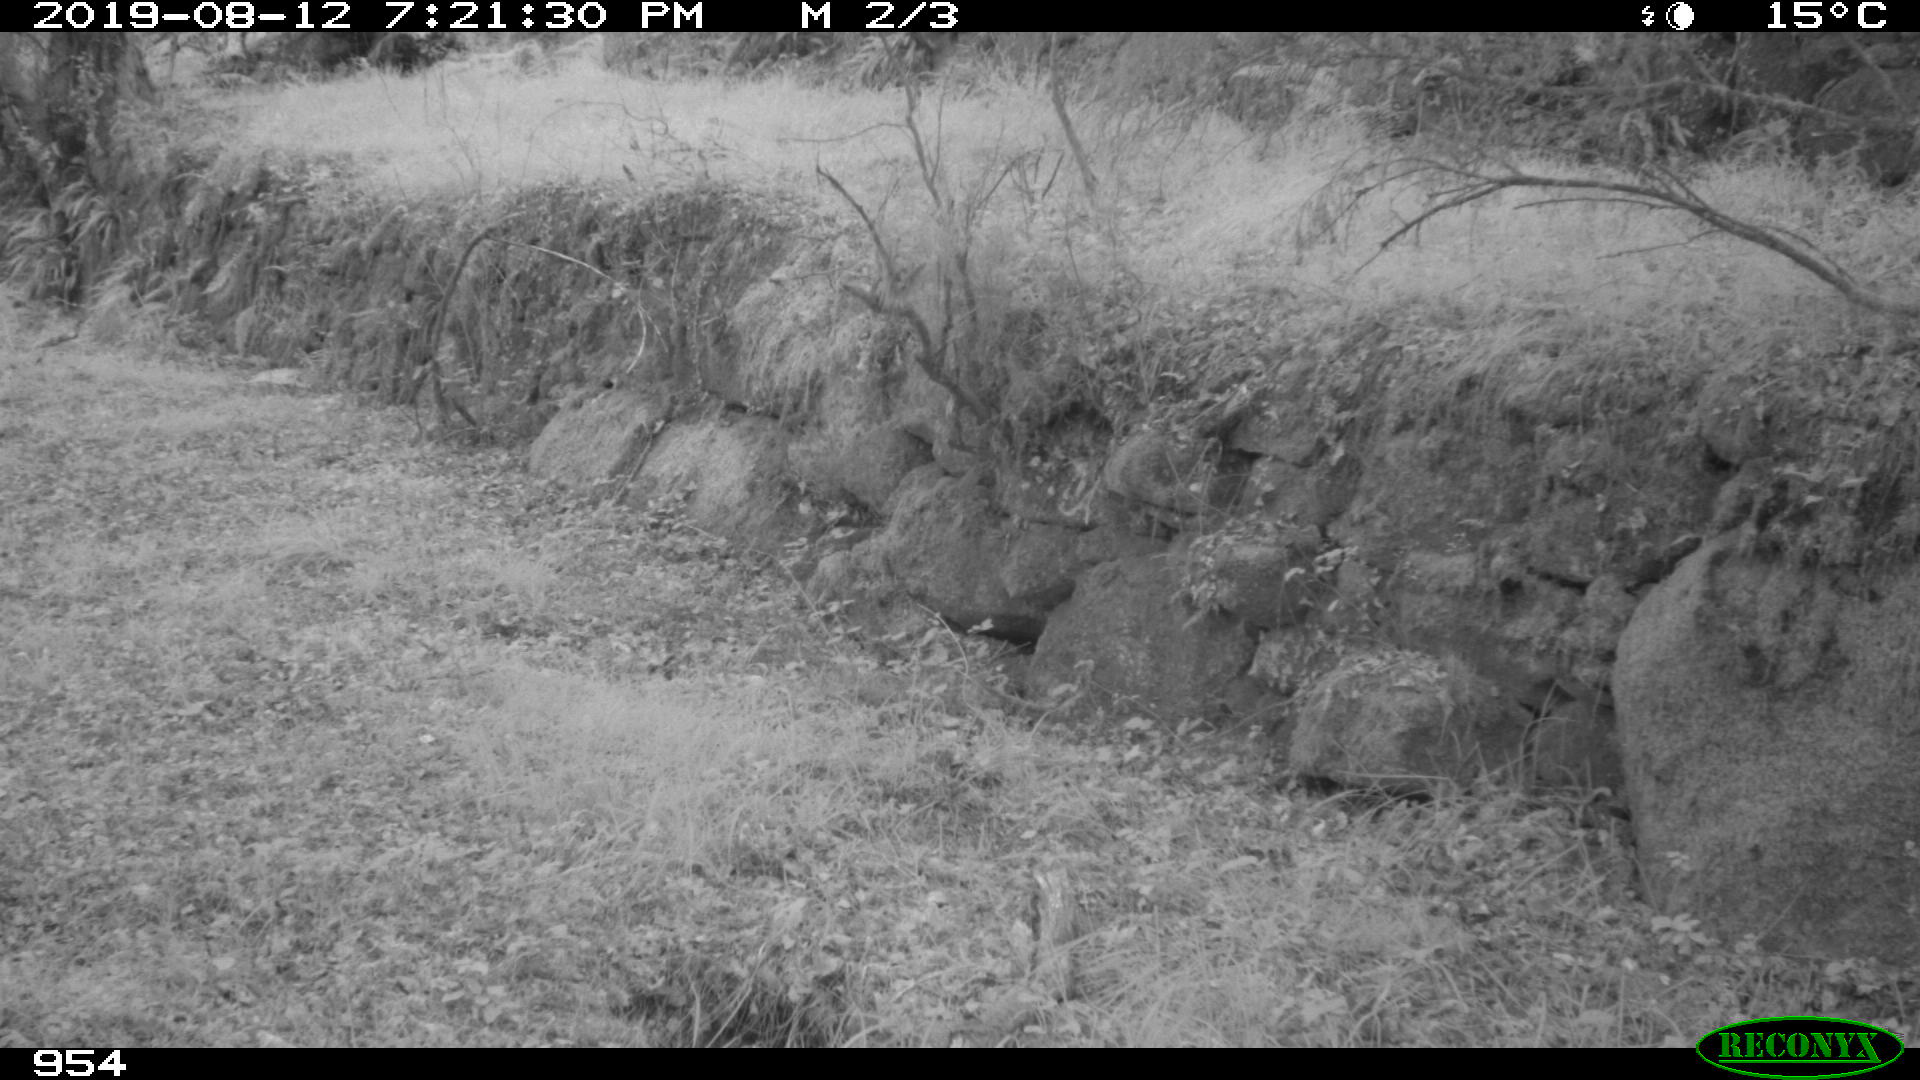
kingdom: Animalia
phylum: Chordata
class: Mammalia
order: Artiodactyla
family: Cervidae
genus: Capreolus
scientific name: Capreolus capreolus
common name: Western roe deer
